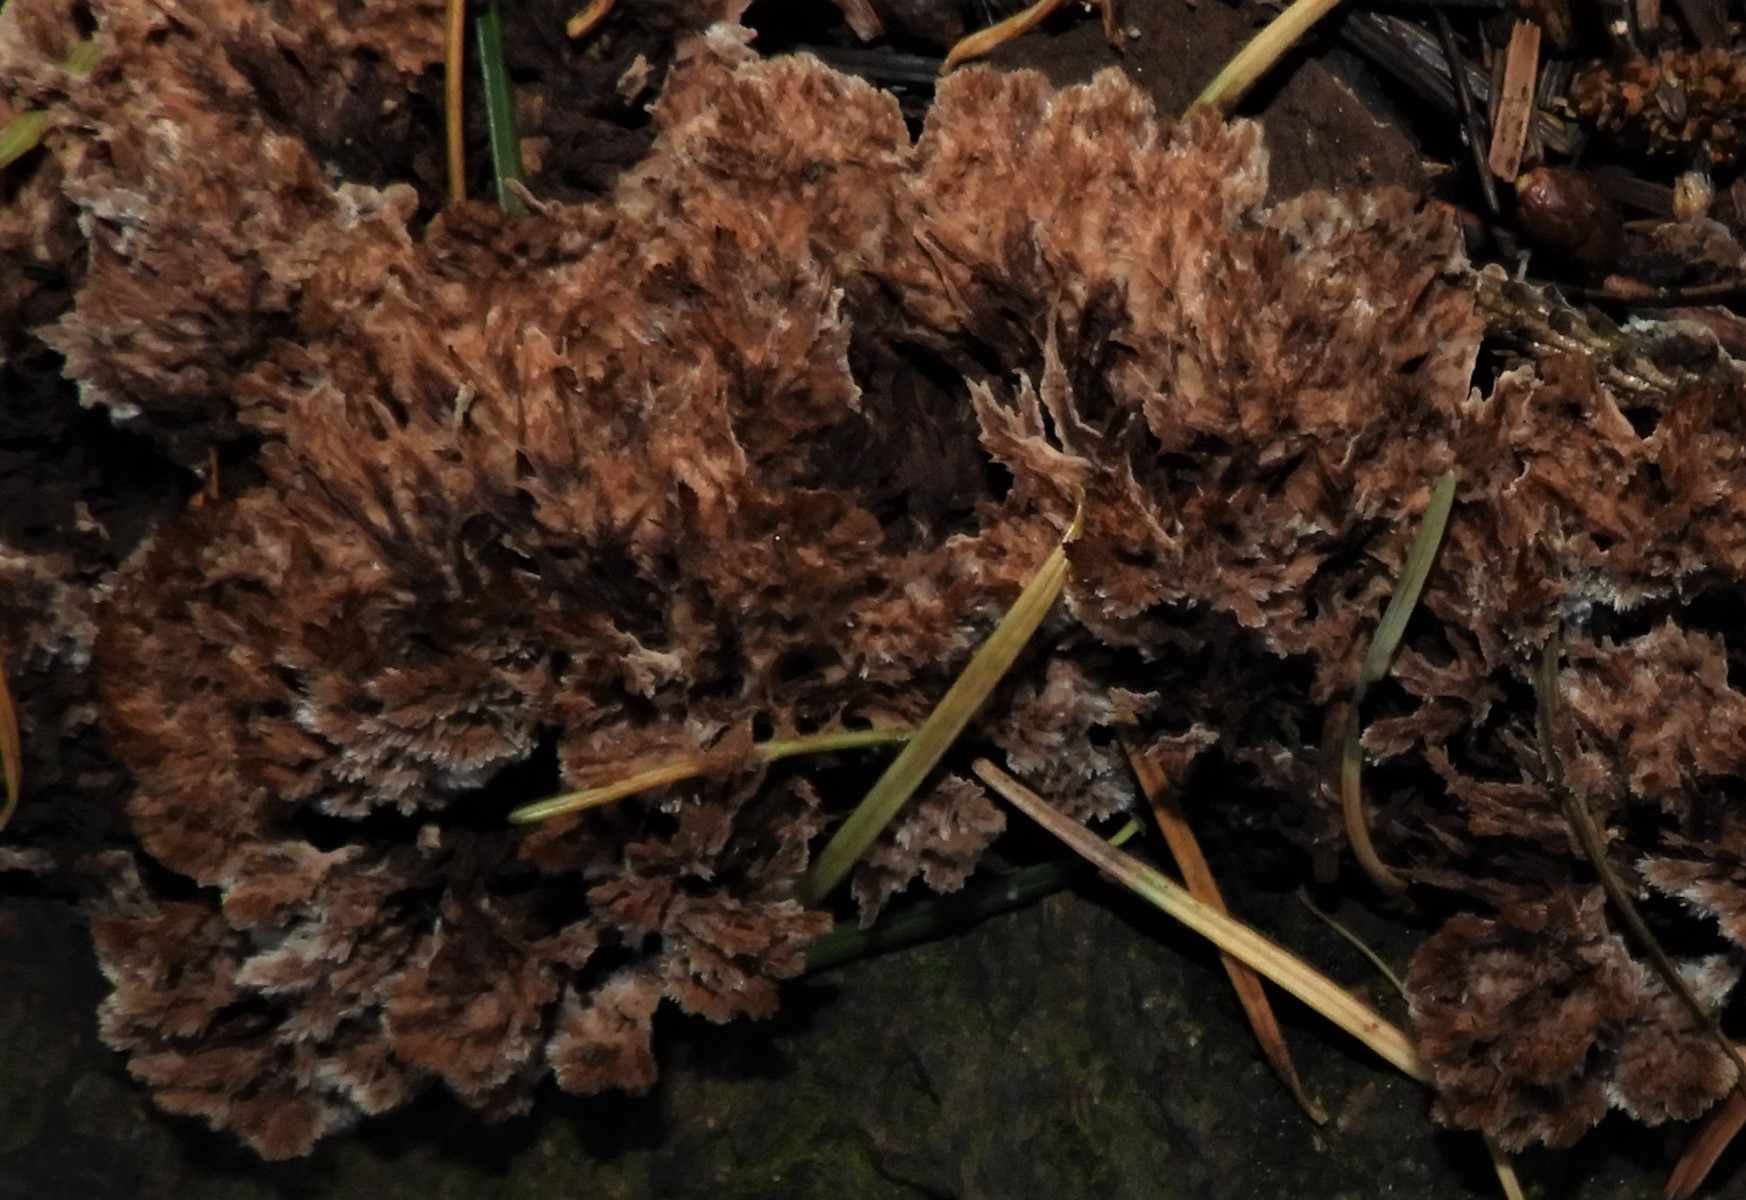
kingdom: Fungi
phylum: Basidiomycota
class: Agaricomycetes
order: Thelephorales
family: Thelephoraceae
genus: Thelephora
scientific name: Thelephora terrestris
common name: fliget frynsesvamp
